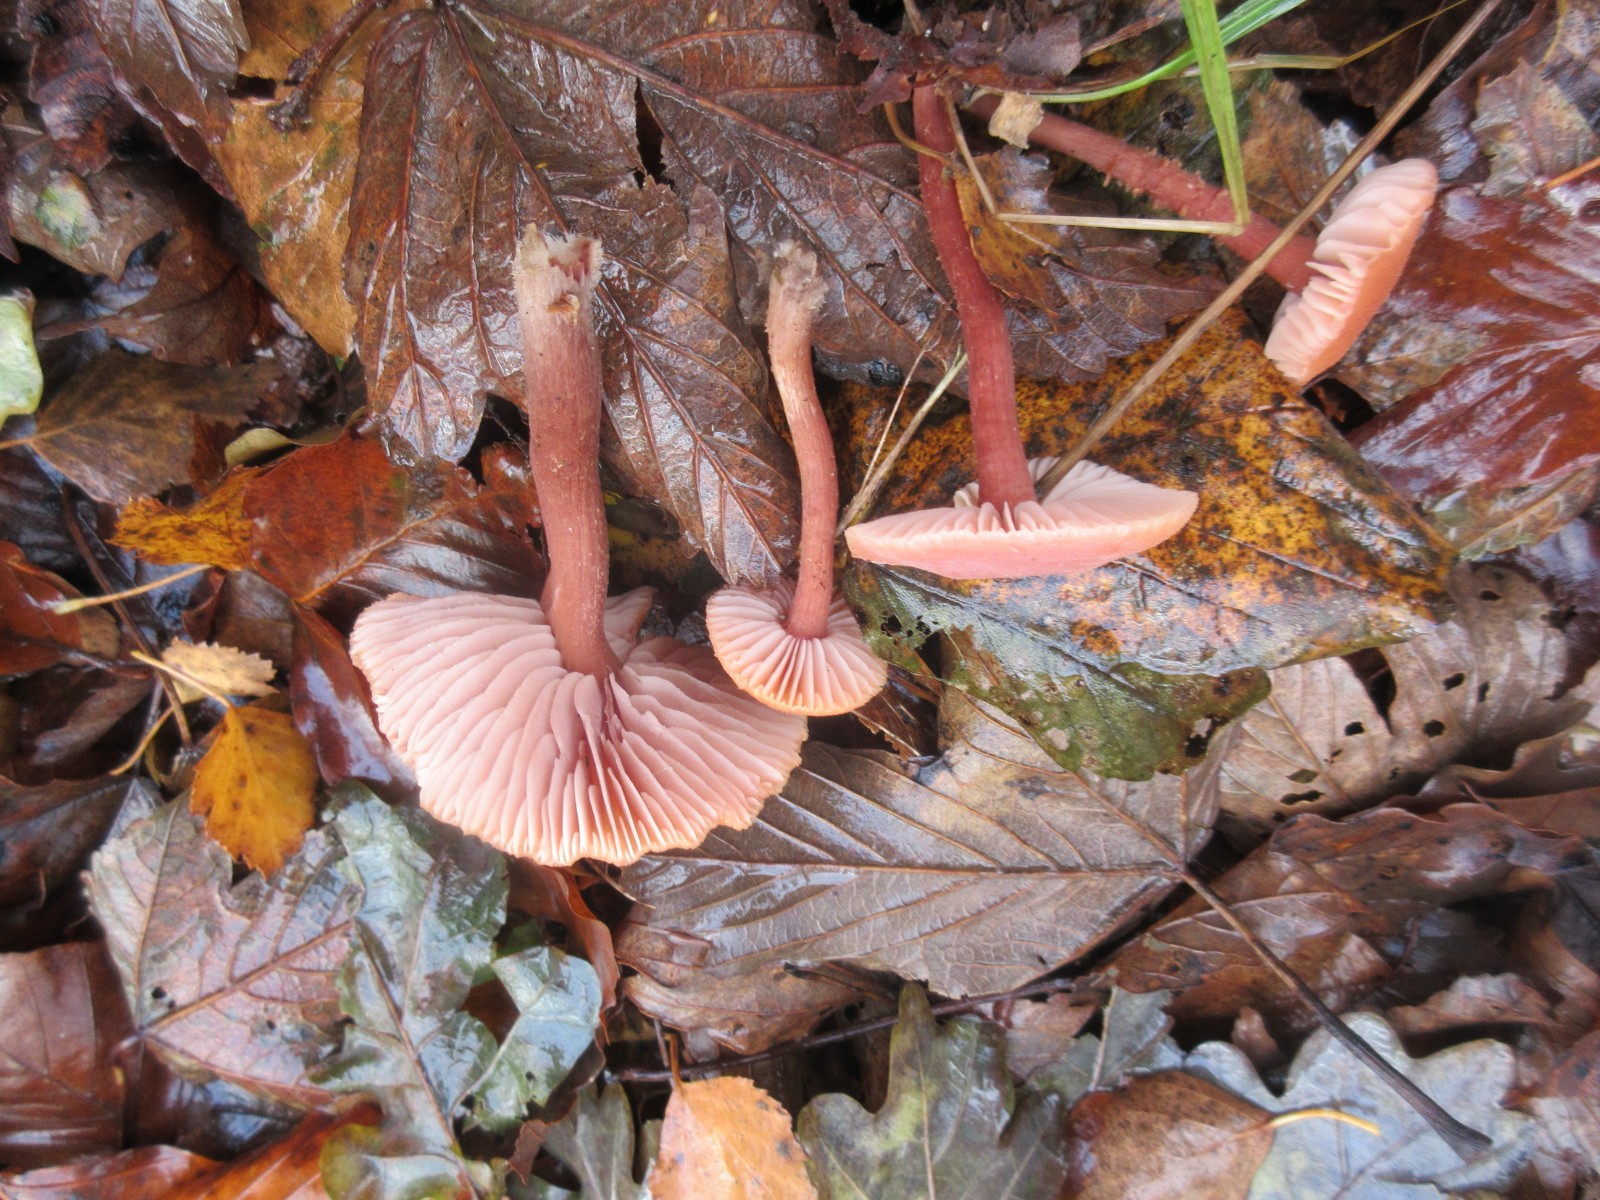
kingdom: Fungi
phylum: Basidiomycota
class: Agaricomycetes
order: Agaricales
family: Hydnangiaceae
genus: Laccaria
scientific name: Laccaria proxima
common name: stor ametysthat
